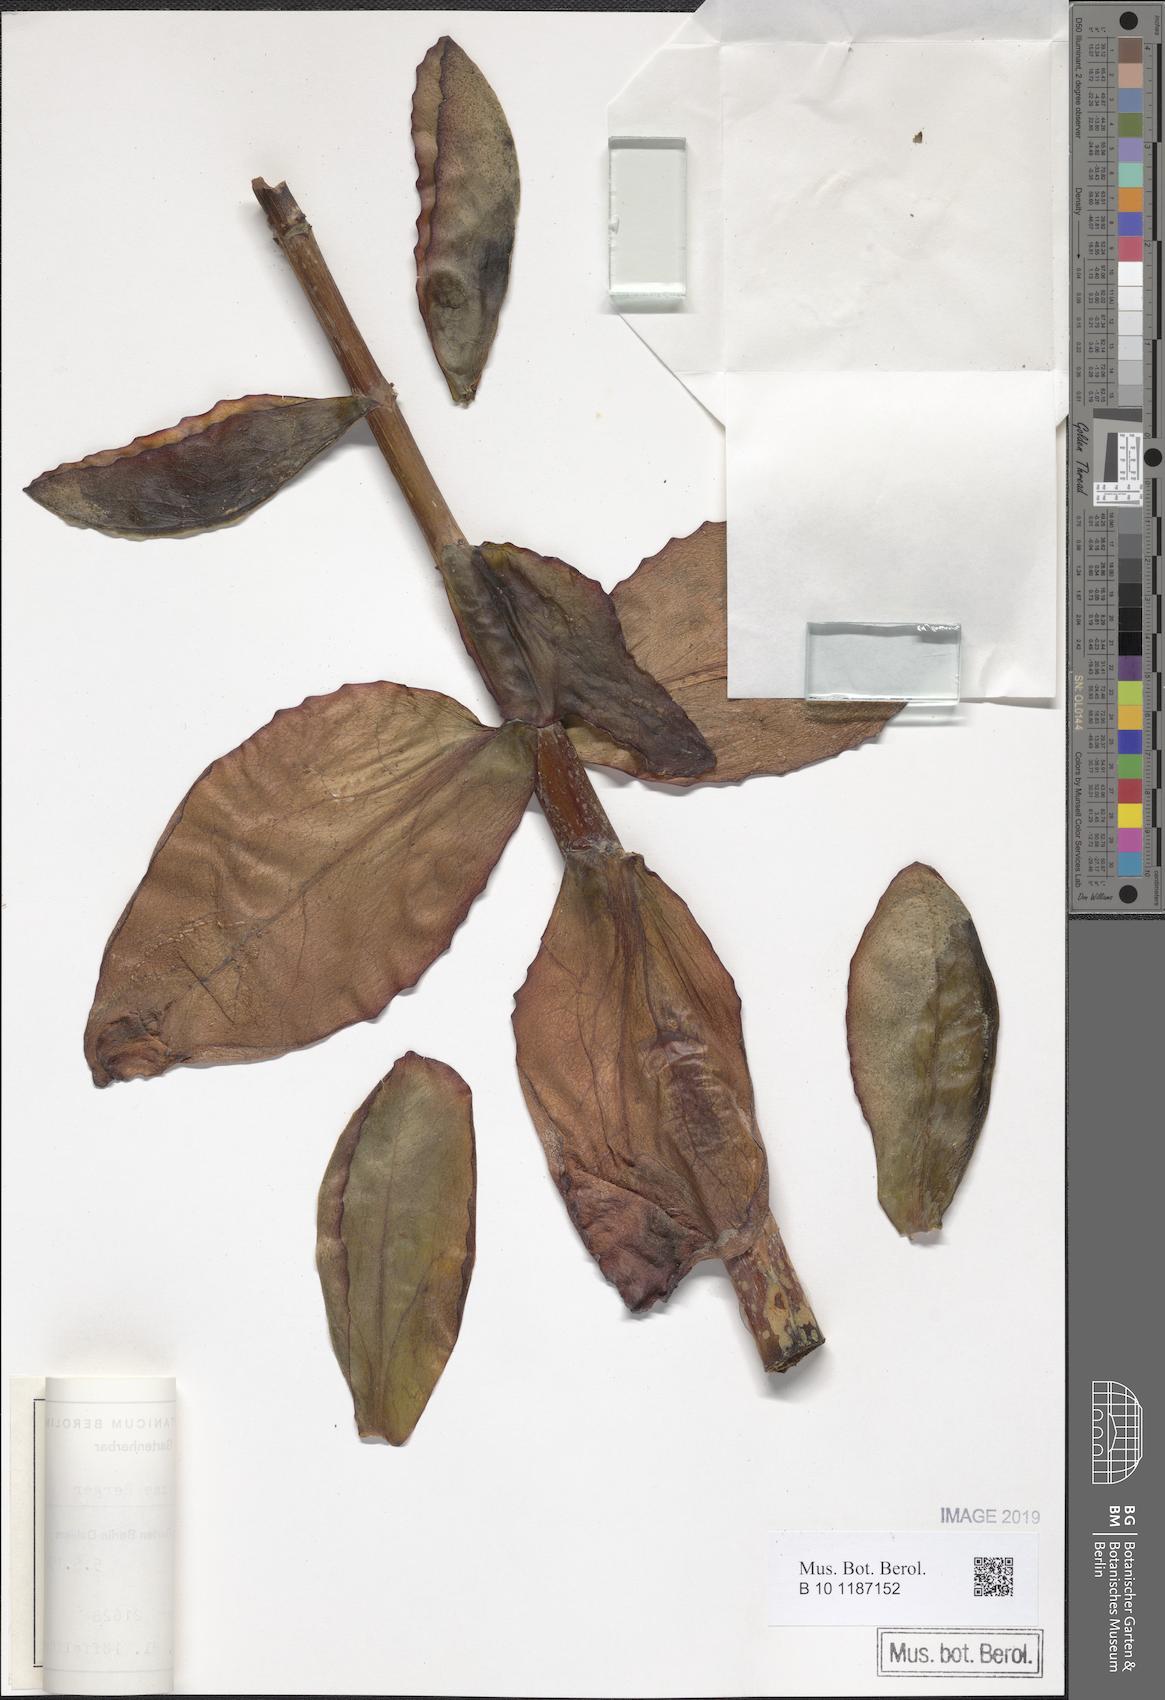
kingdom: Plantae
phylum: Tracheophyta
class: Magnoliopsida
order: Saxifragales
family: Crassulaceae
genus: Kalanchoe
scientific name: Kalanchoe elizae
